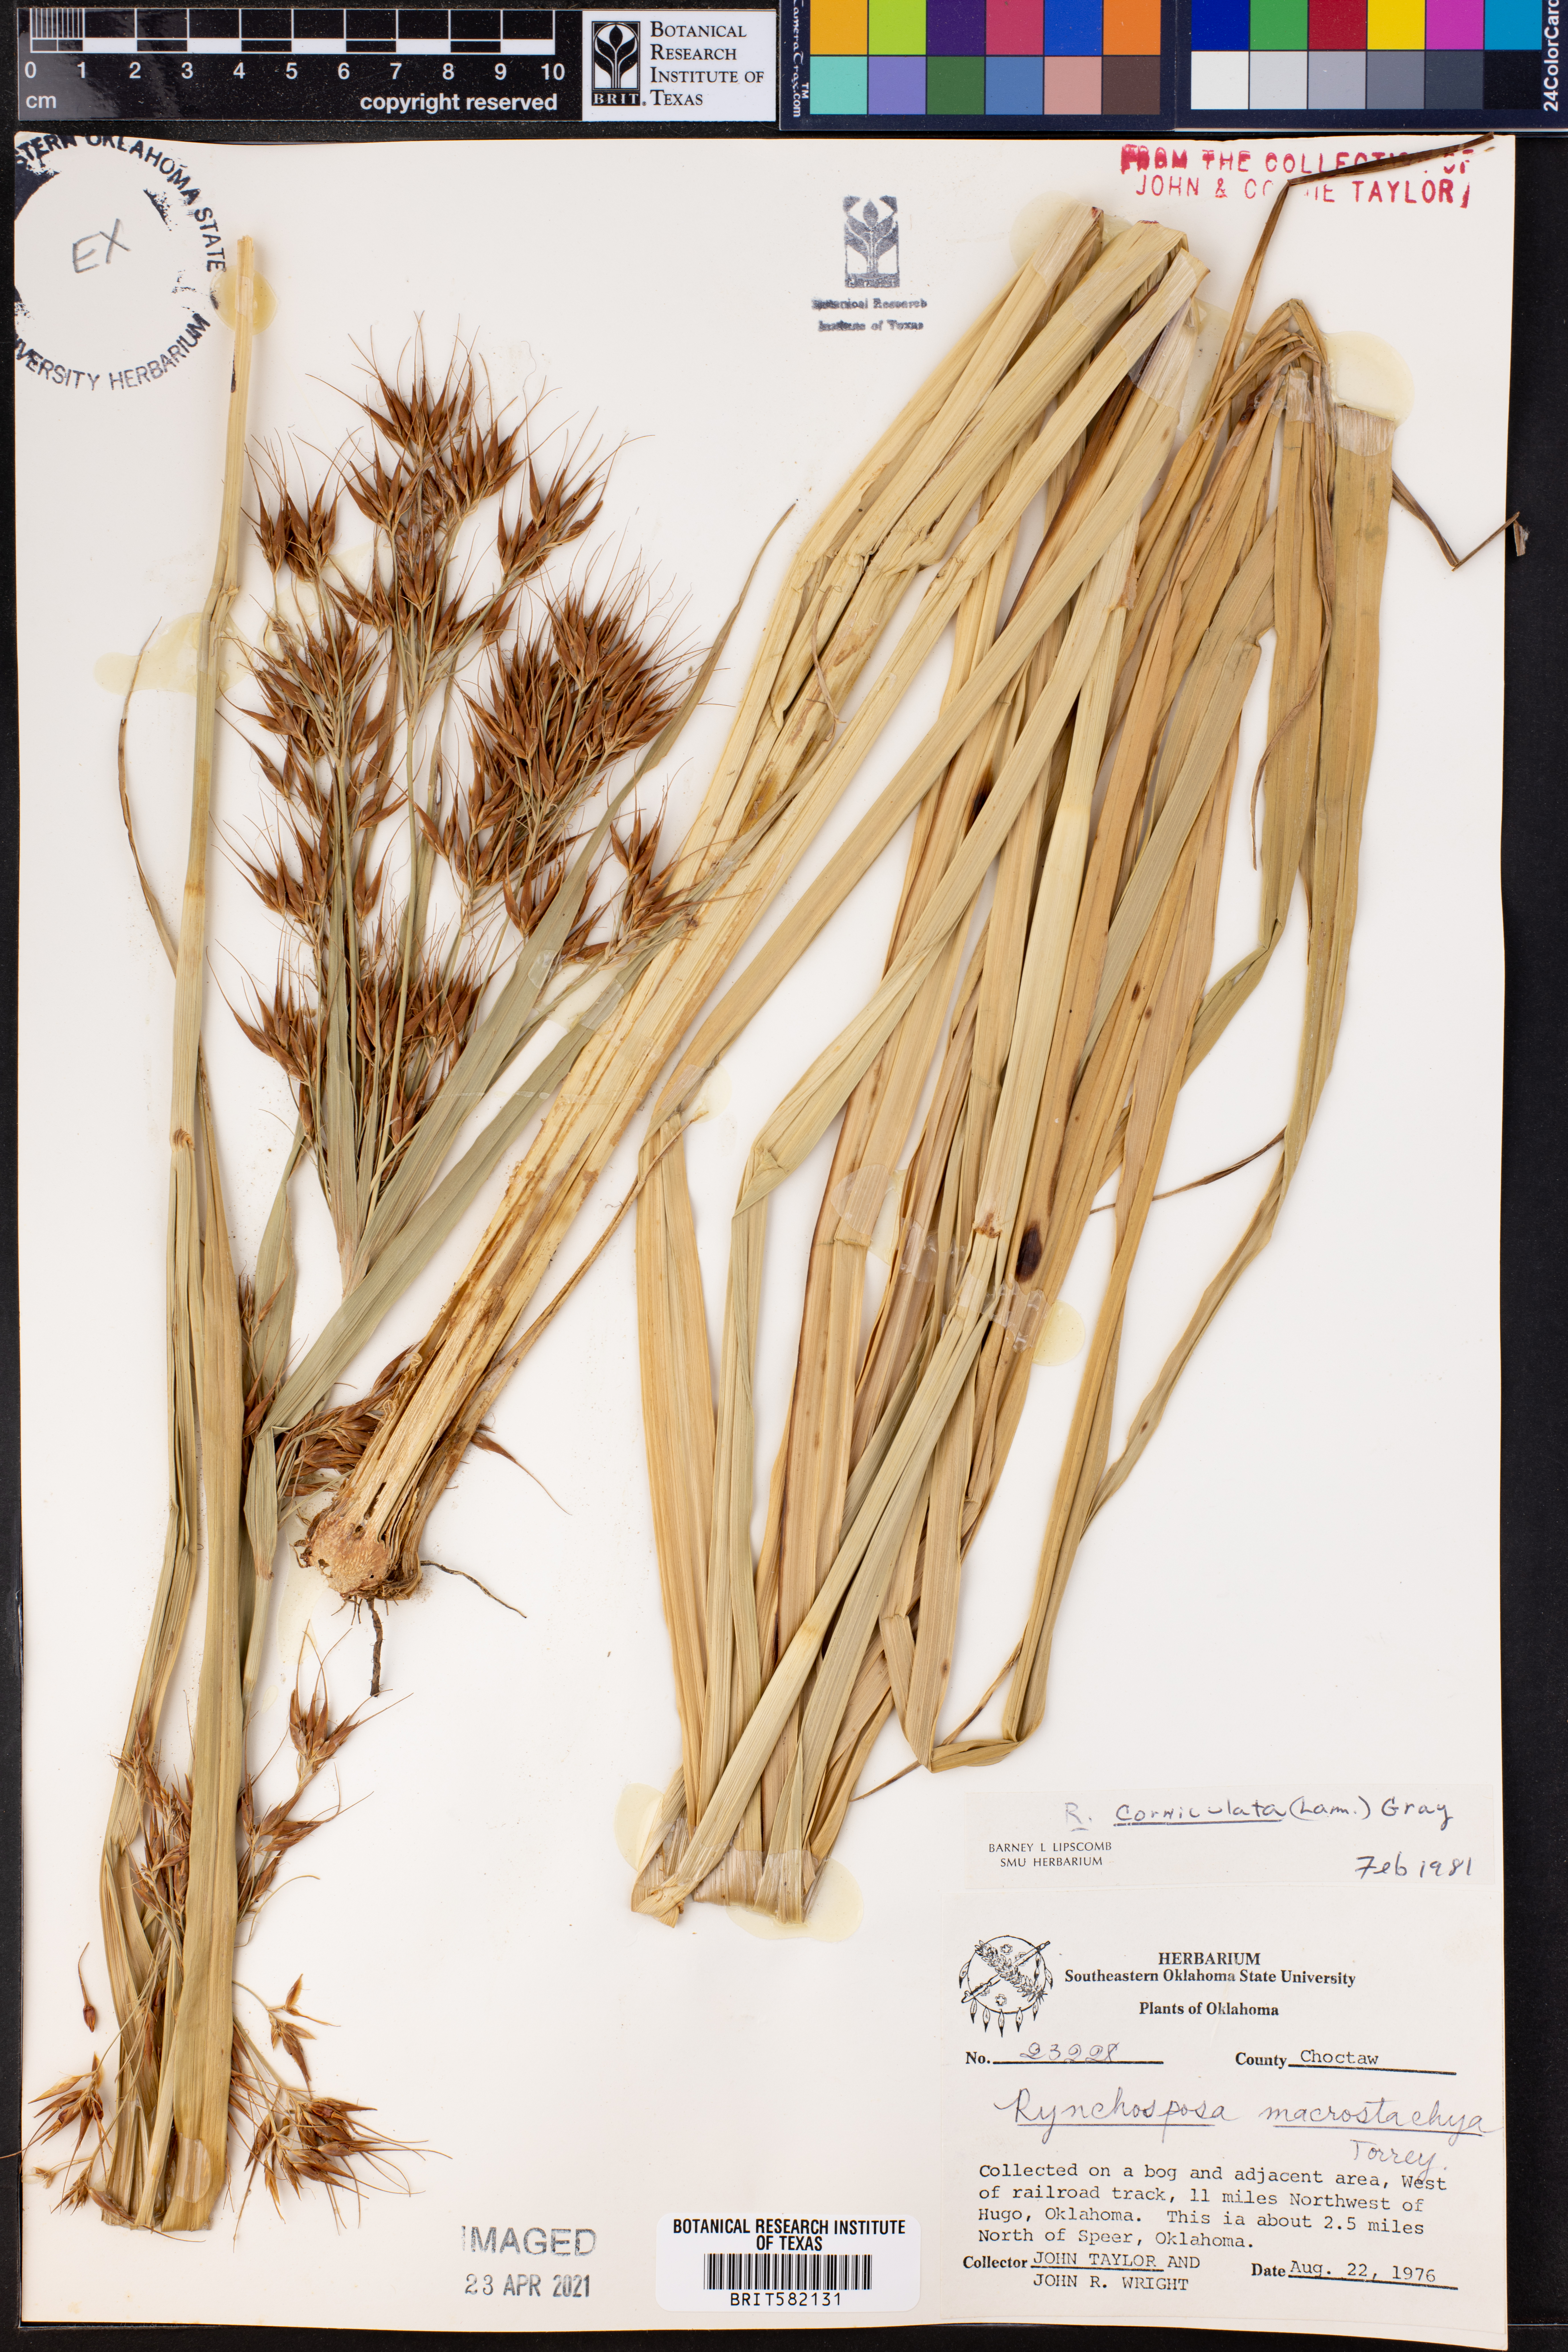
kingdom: Plantae
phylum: Tracheophyta
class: Liliopsida
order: Poales
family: Cyperaceae
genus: Rhynchospora
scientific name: Rhynchospora corniculata
